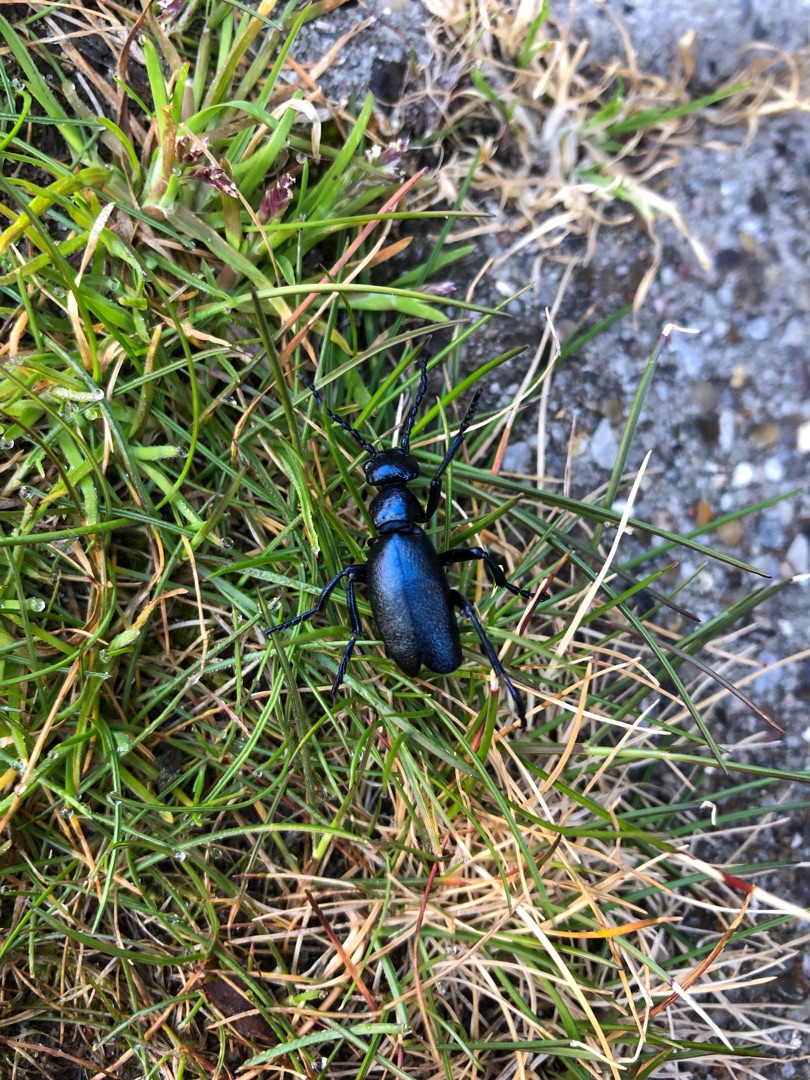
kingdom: Animalia
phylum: Arthropoda
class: Insecta
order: Coleoptera
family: Meloidae
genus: Meloe
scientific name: Meloe violaceus
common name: Blå oliebille
